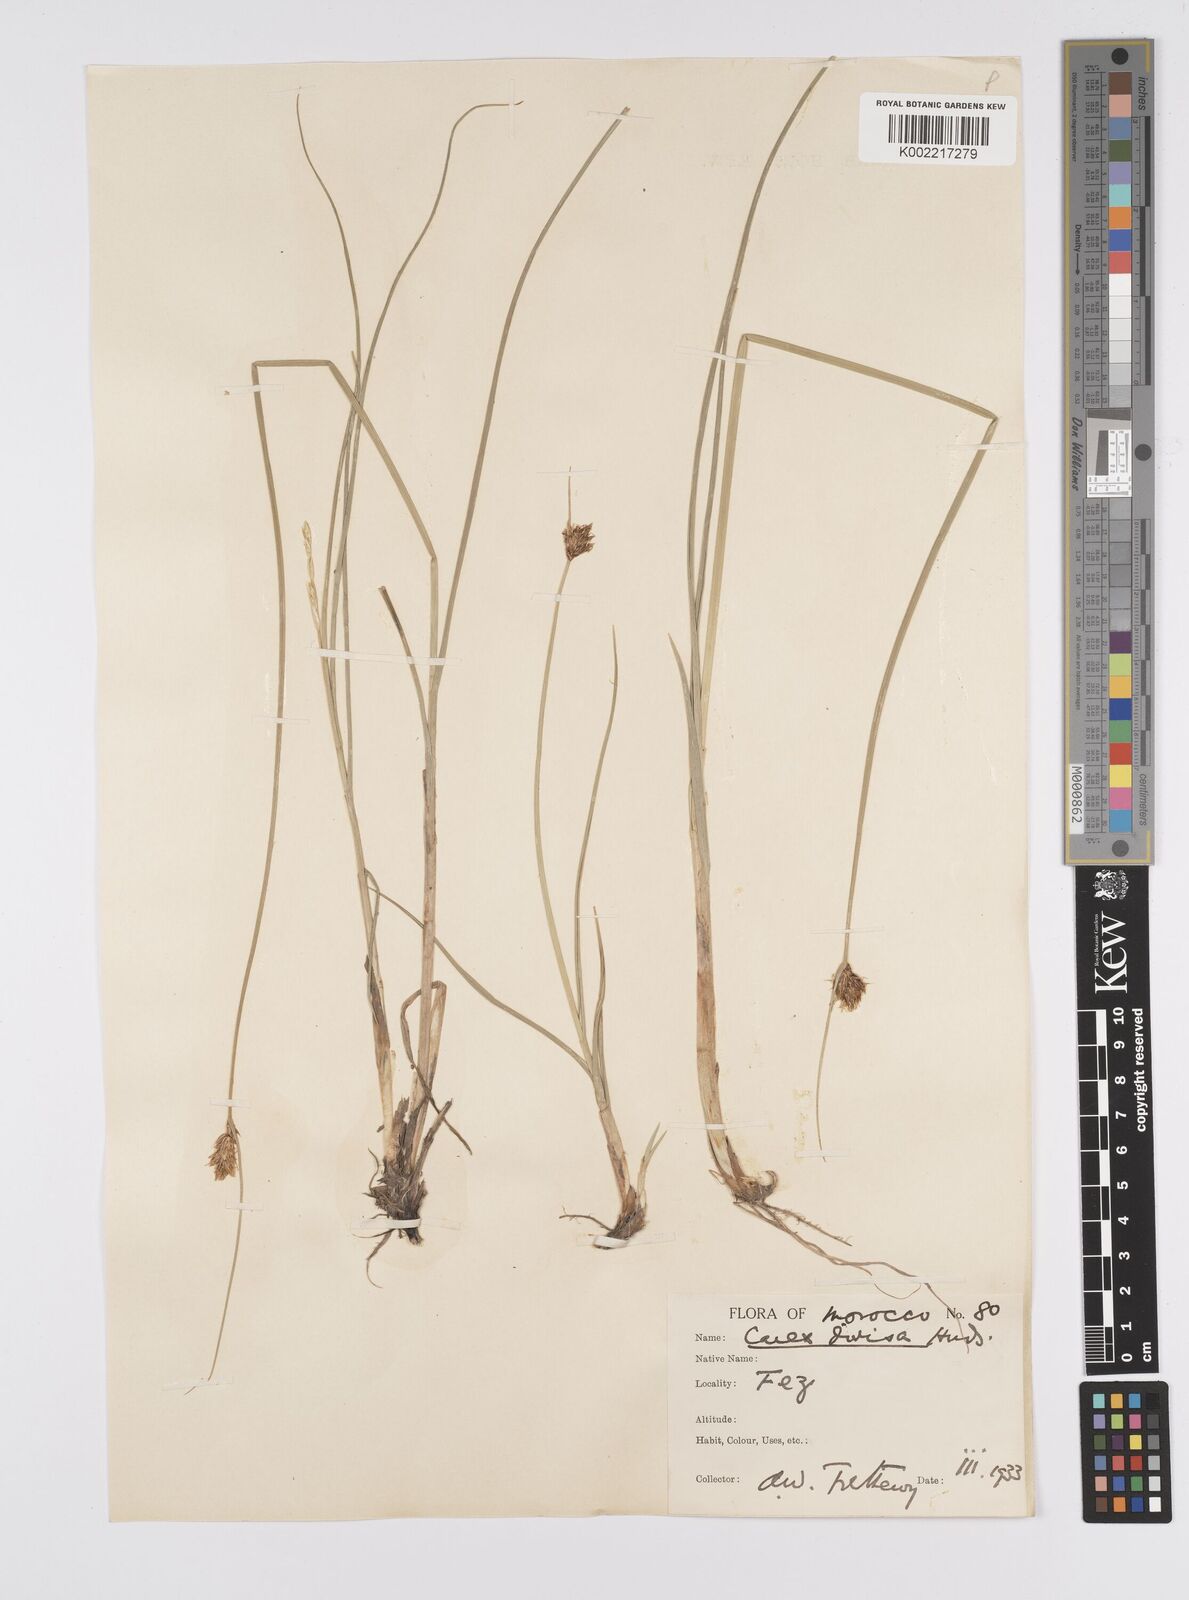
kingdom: Plantae
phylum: Tracheophyta
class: Liliopsida
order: Poales
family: Cyperaceae
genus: Carex
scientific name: Carex divisa
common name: Divided sedge
